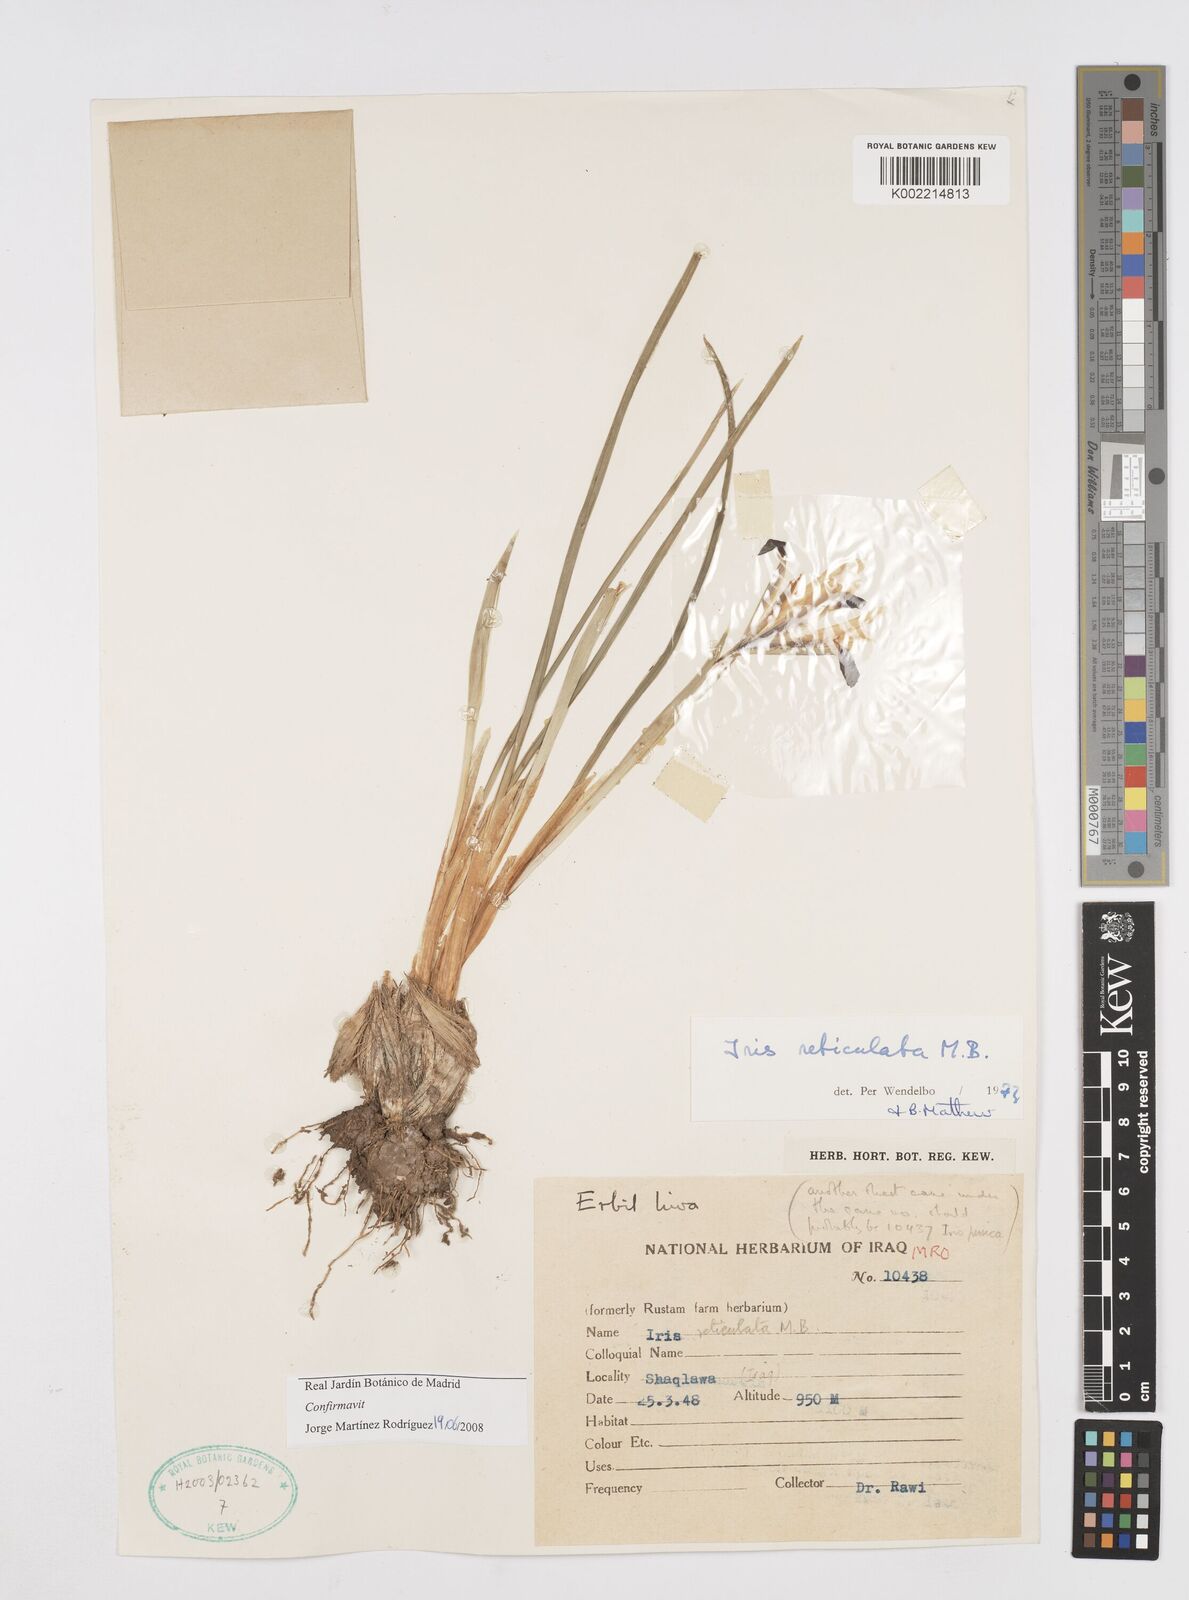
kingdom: Plantae
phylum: Tracheophyta
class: Liliopsida
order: Asparagales
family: Iridaceae
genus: Iris
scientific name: Iris reticulata
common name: Netted iris
